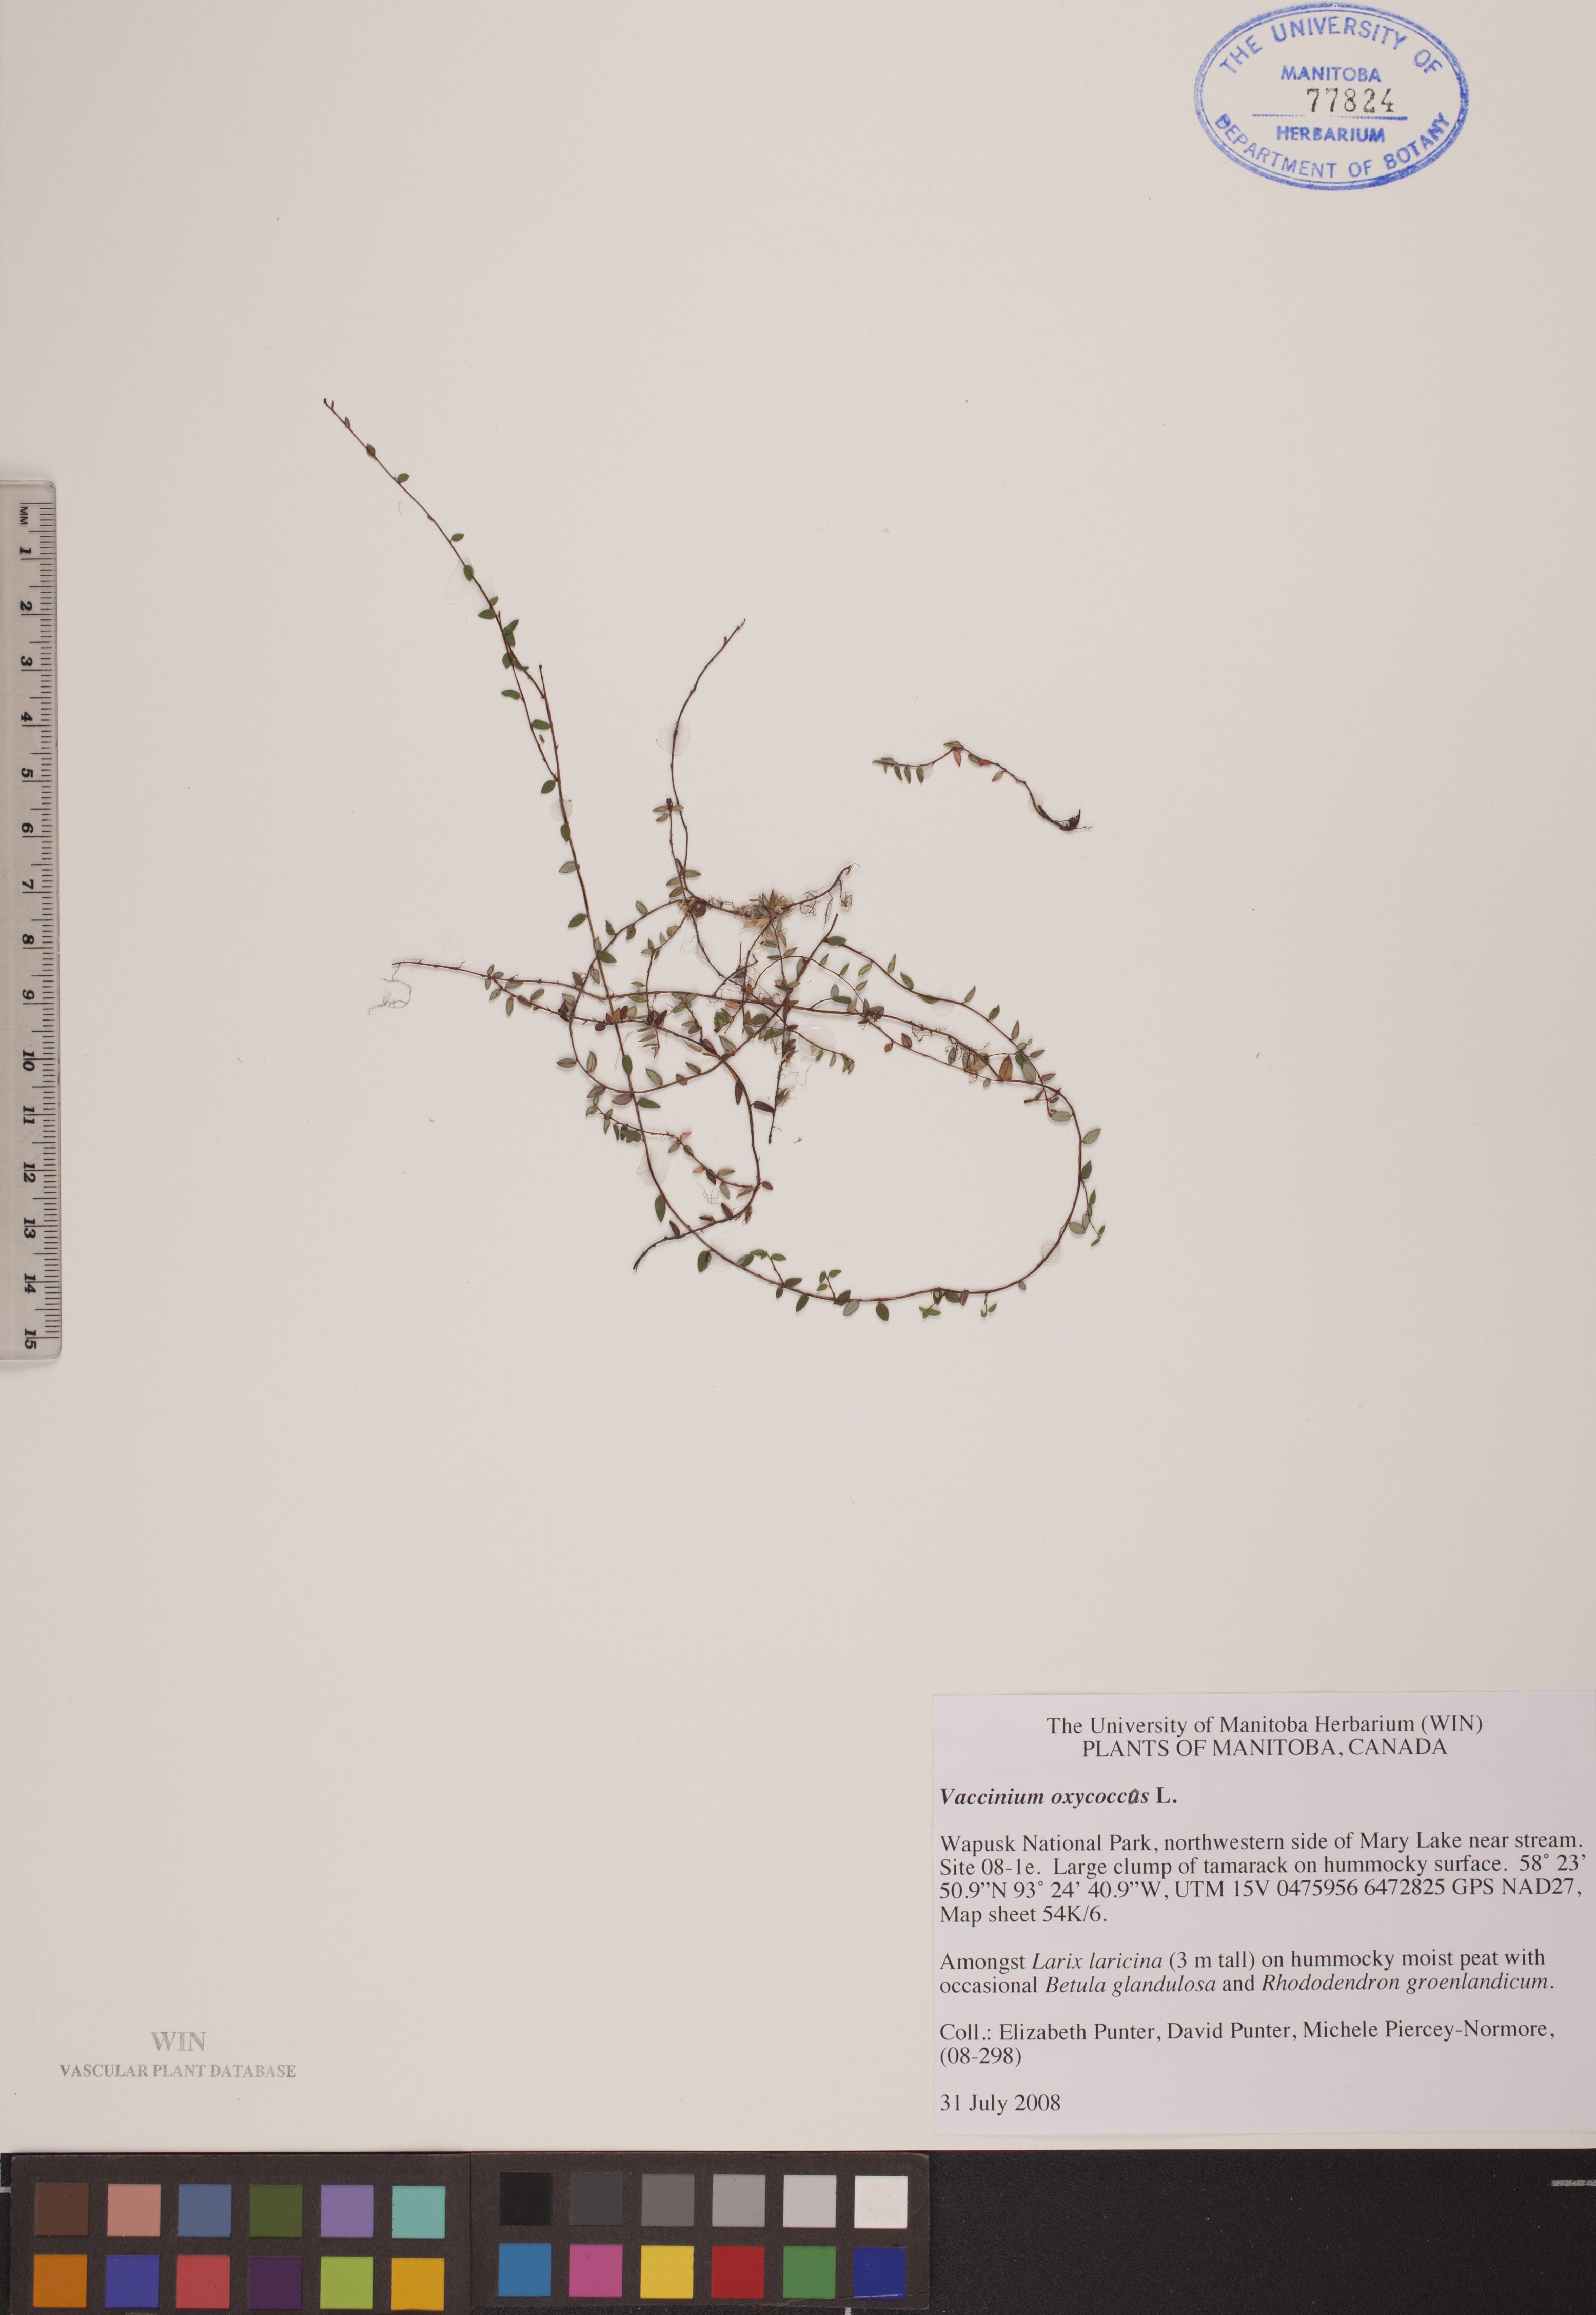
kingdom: Plantae
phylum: Tracheophyta
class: Magnoliopsida
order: Ericales
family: Ericaceae
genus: Vaccinium
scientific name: Vaccinium oxycoccos
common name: Cranberry
